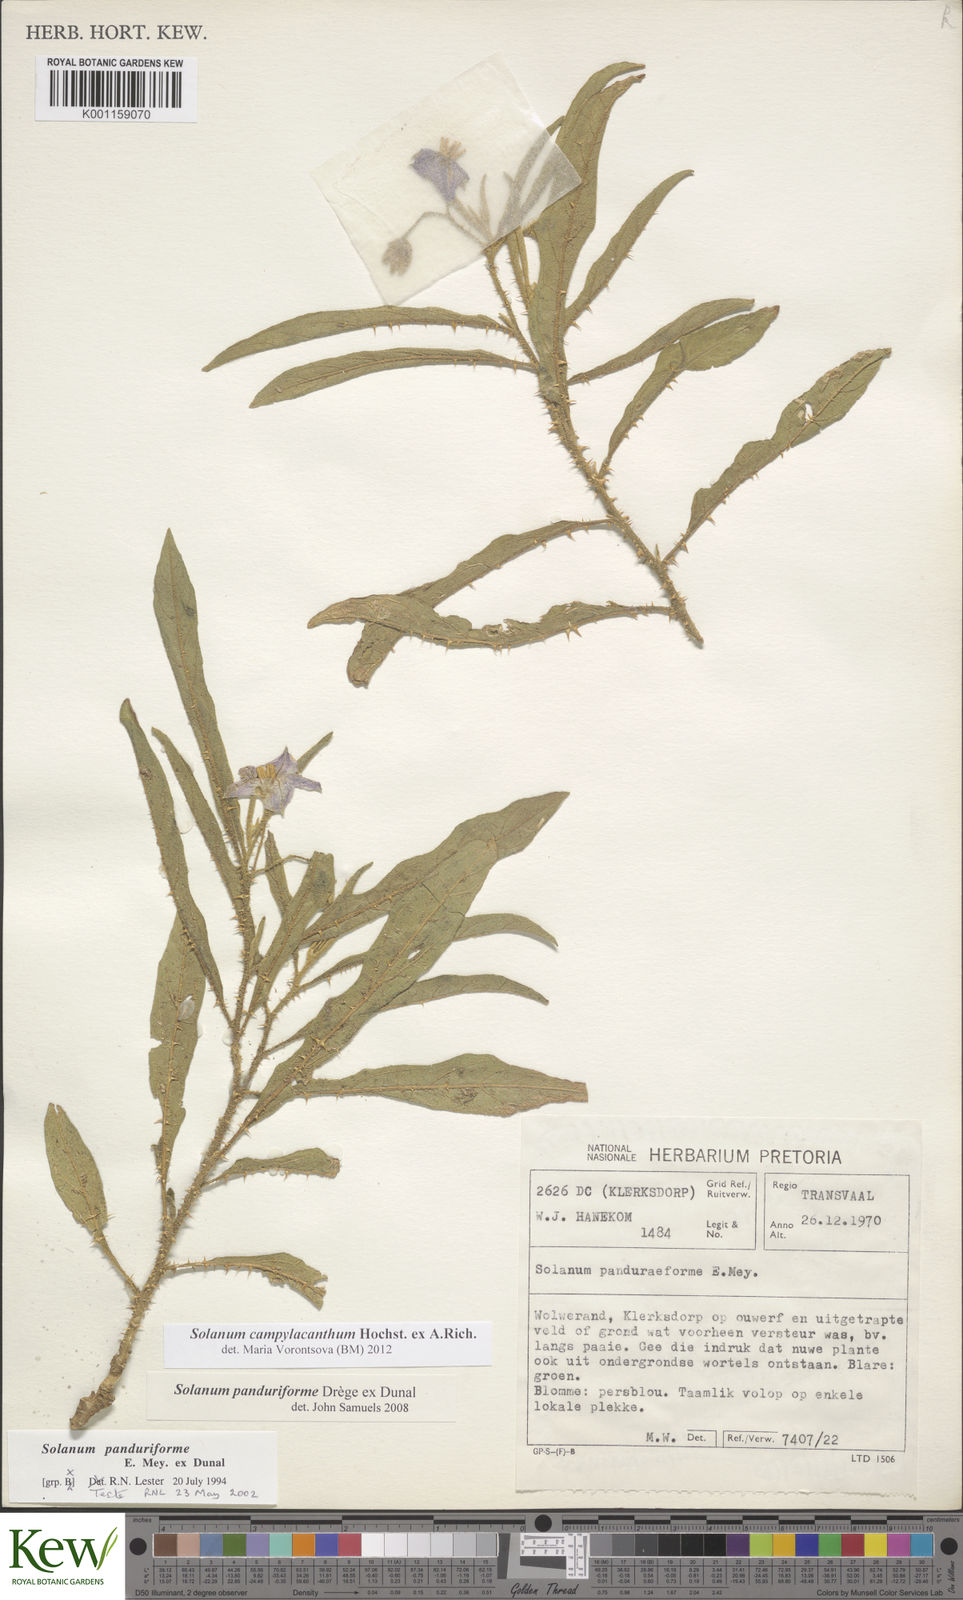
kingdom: Plantae
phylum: Tracheophyta
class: Magnoliopsida
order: Solanales
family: Solanaceae
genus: Solanum
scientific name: Solanum campylacanthum
